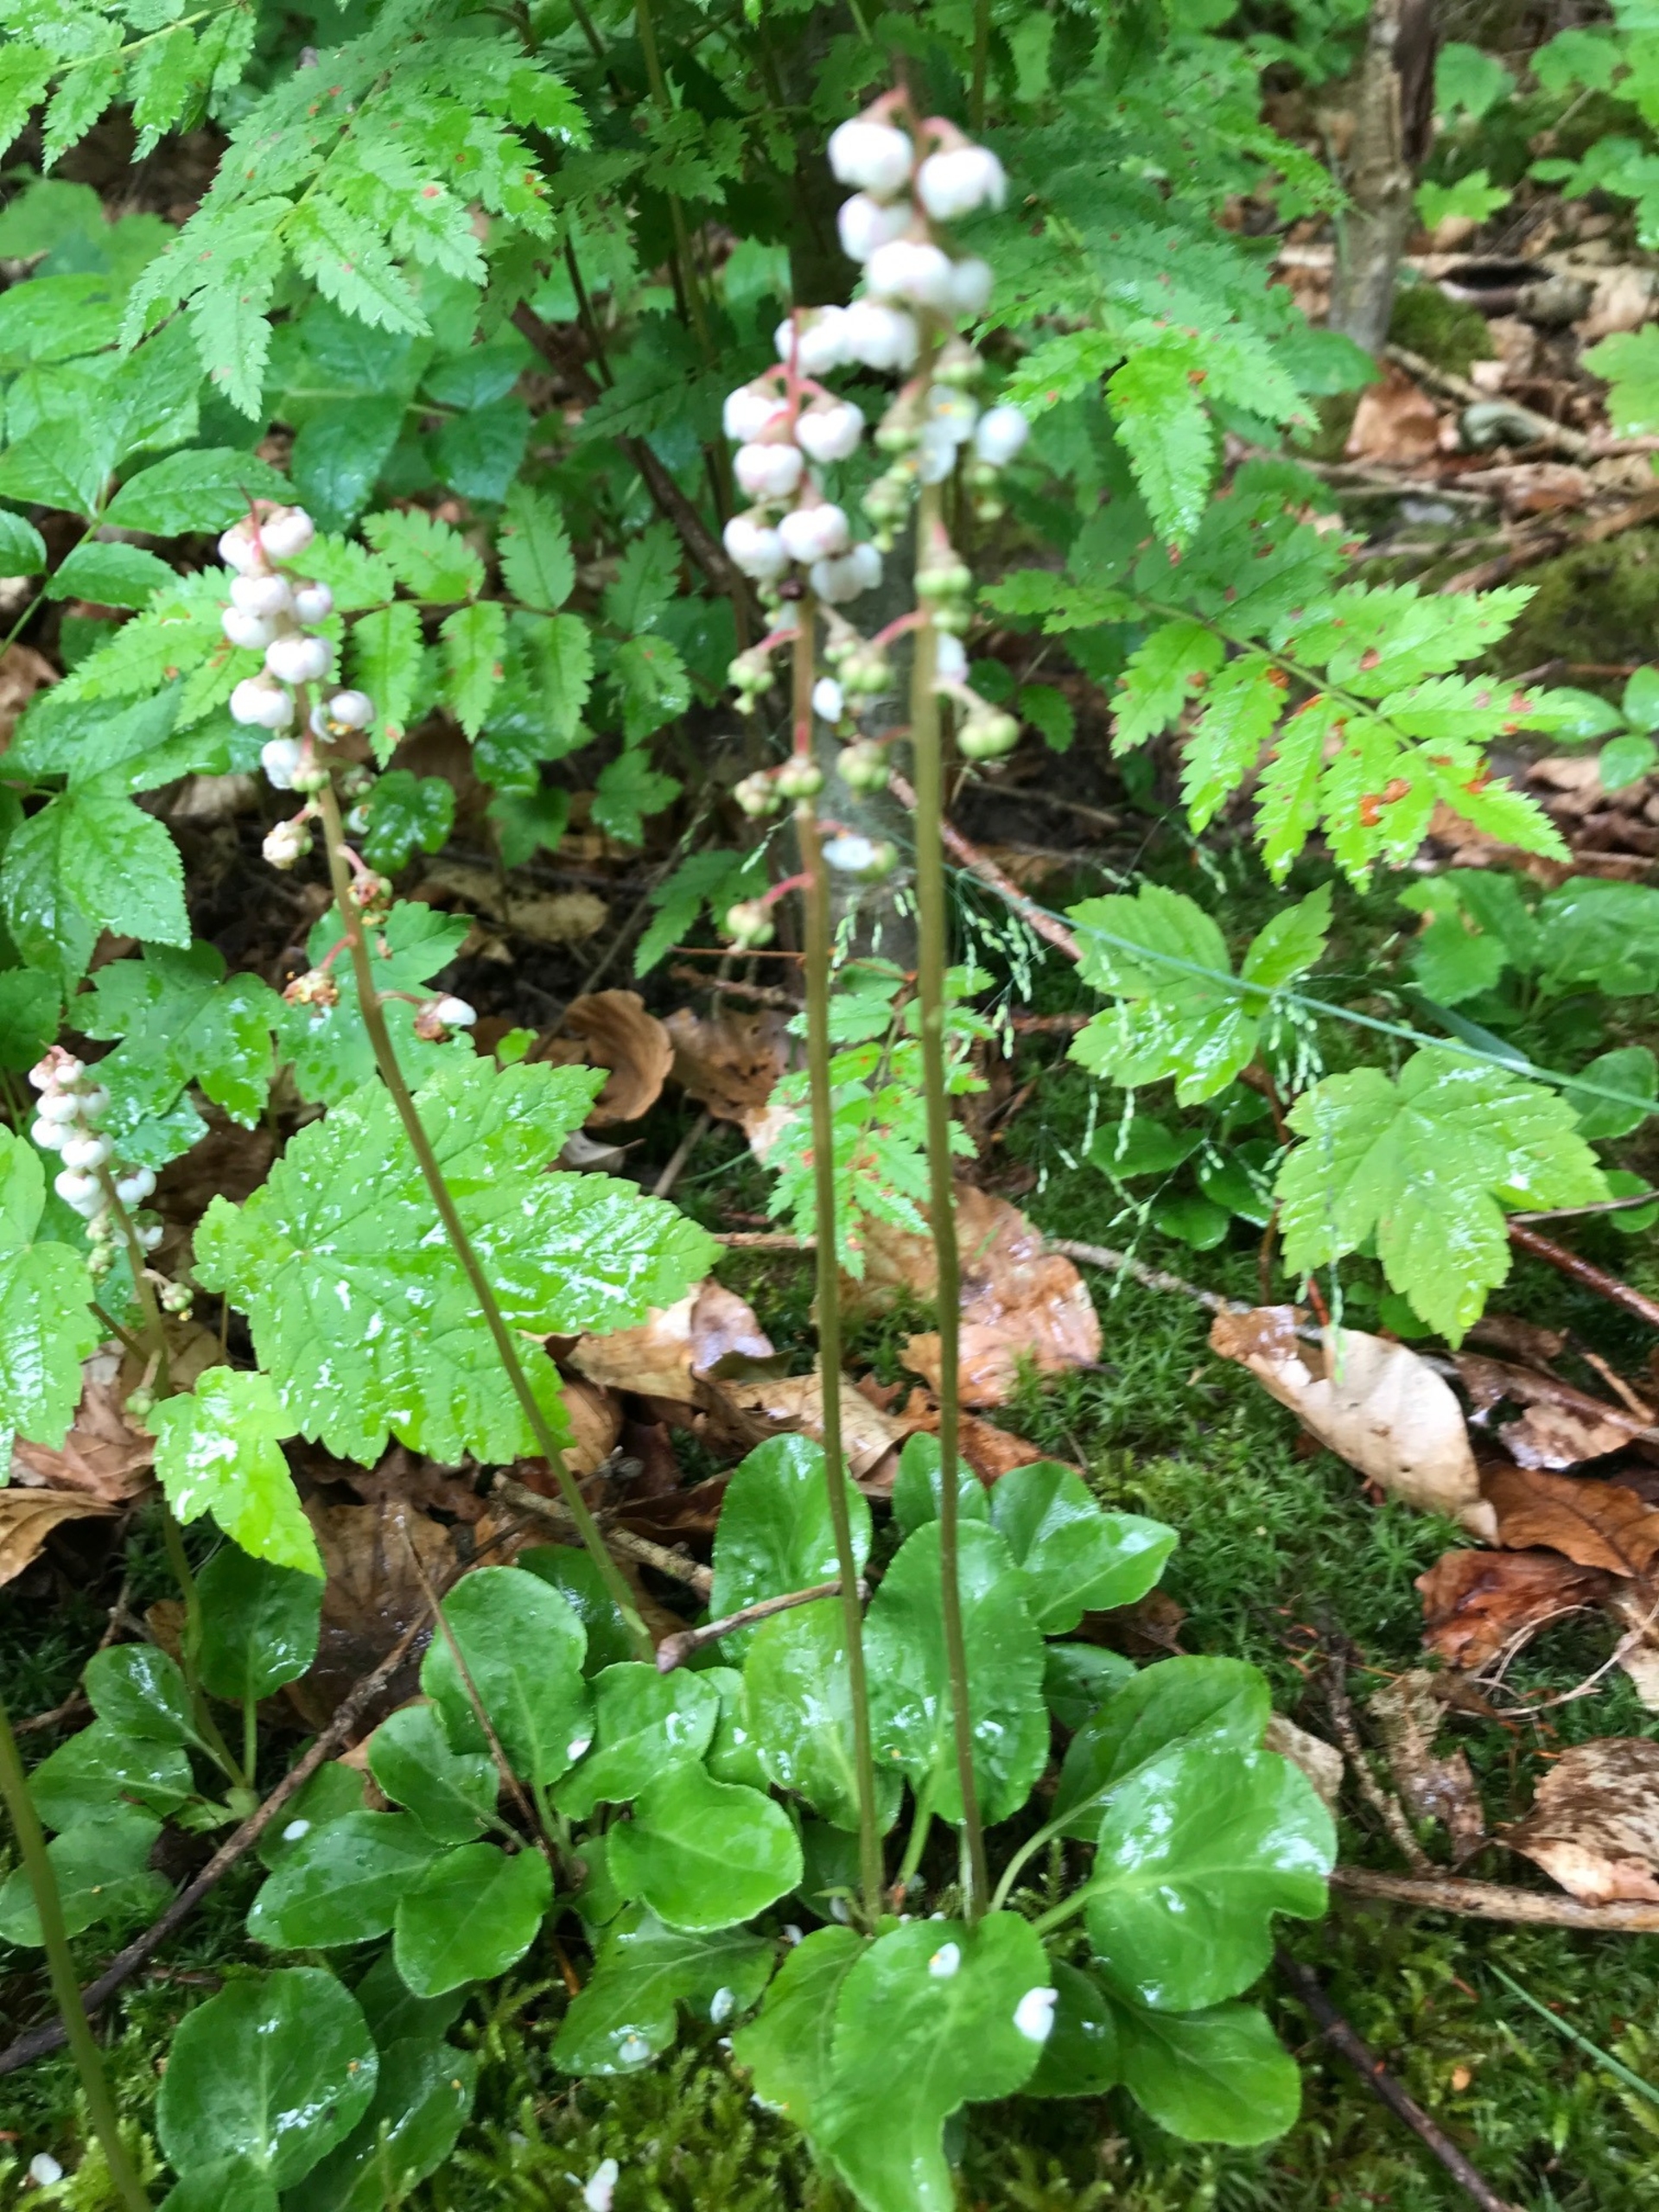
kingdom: Plantae
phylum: Tracheophyta
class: Magnoliopsida
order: Ericales
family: Ericaceae
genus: Pyrola
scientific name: Pyrola minor
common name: Liden vintergrøn
